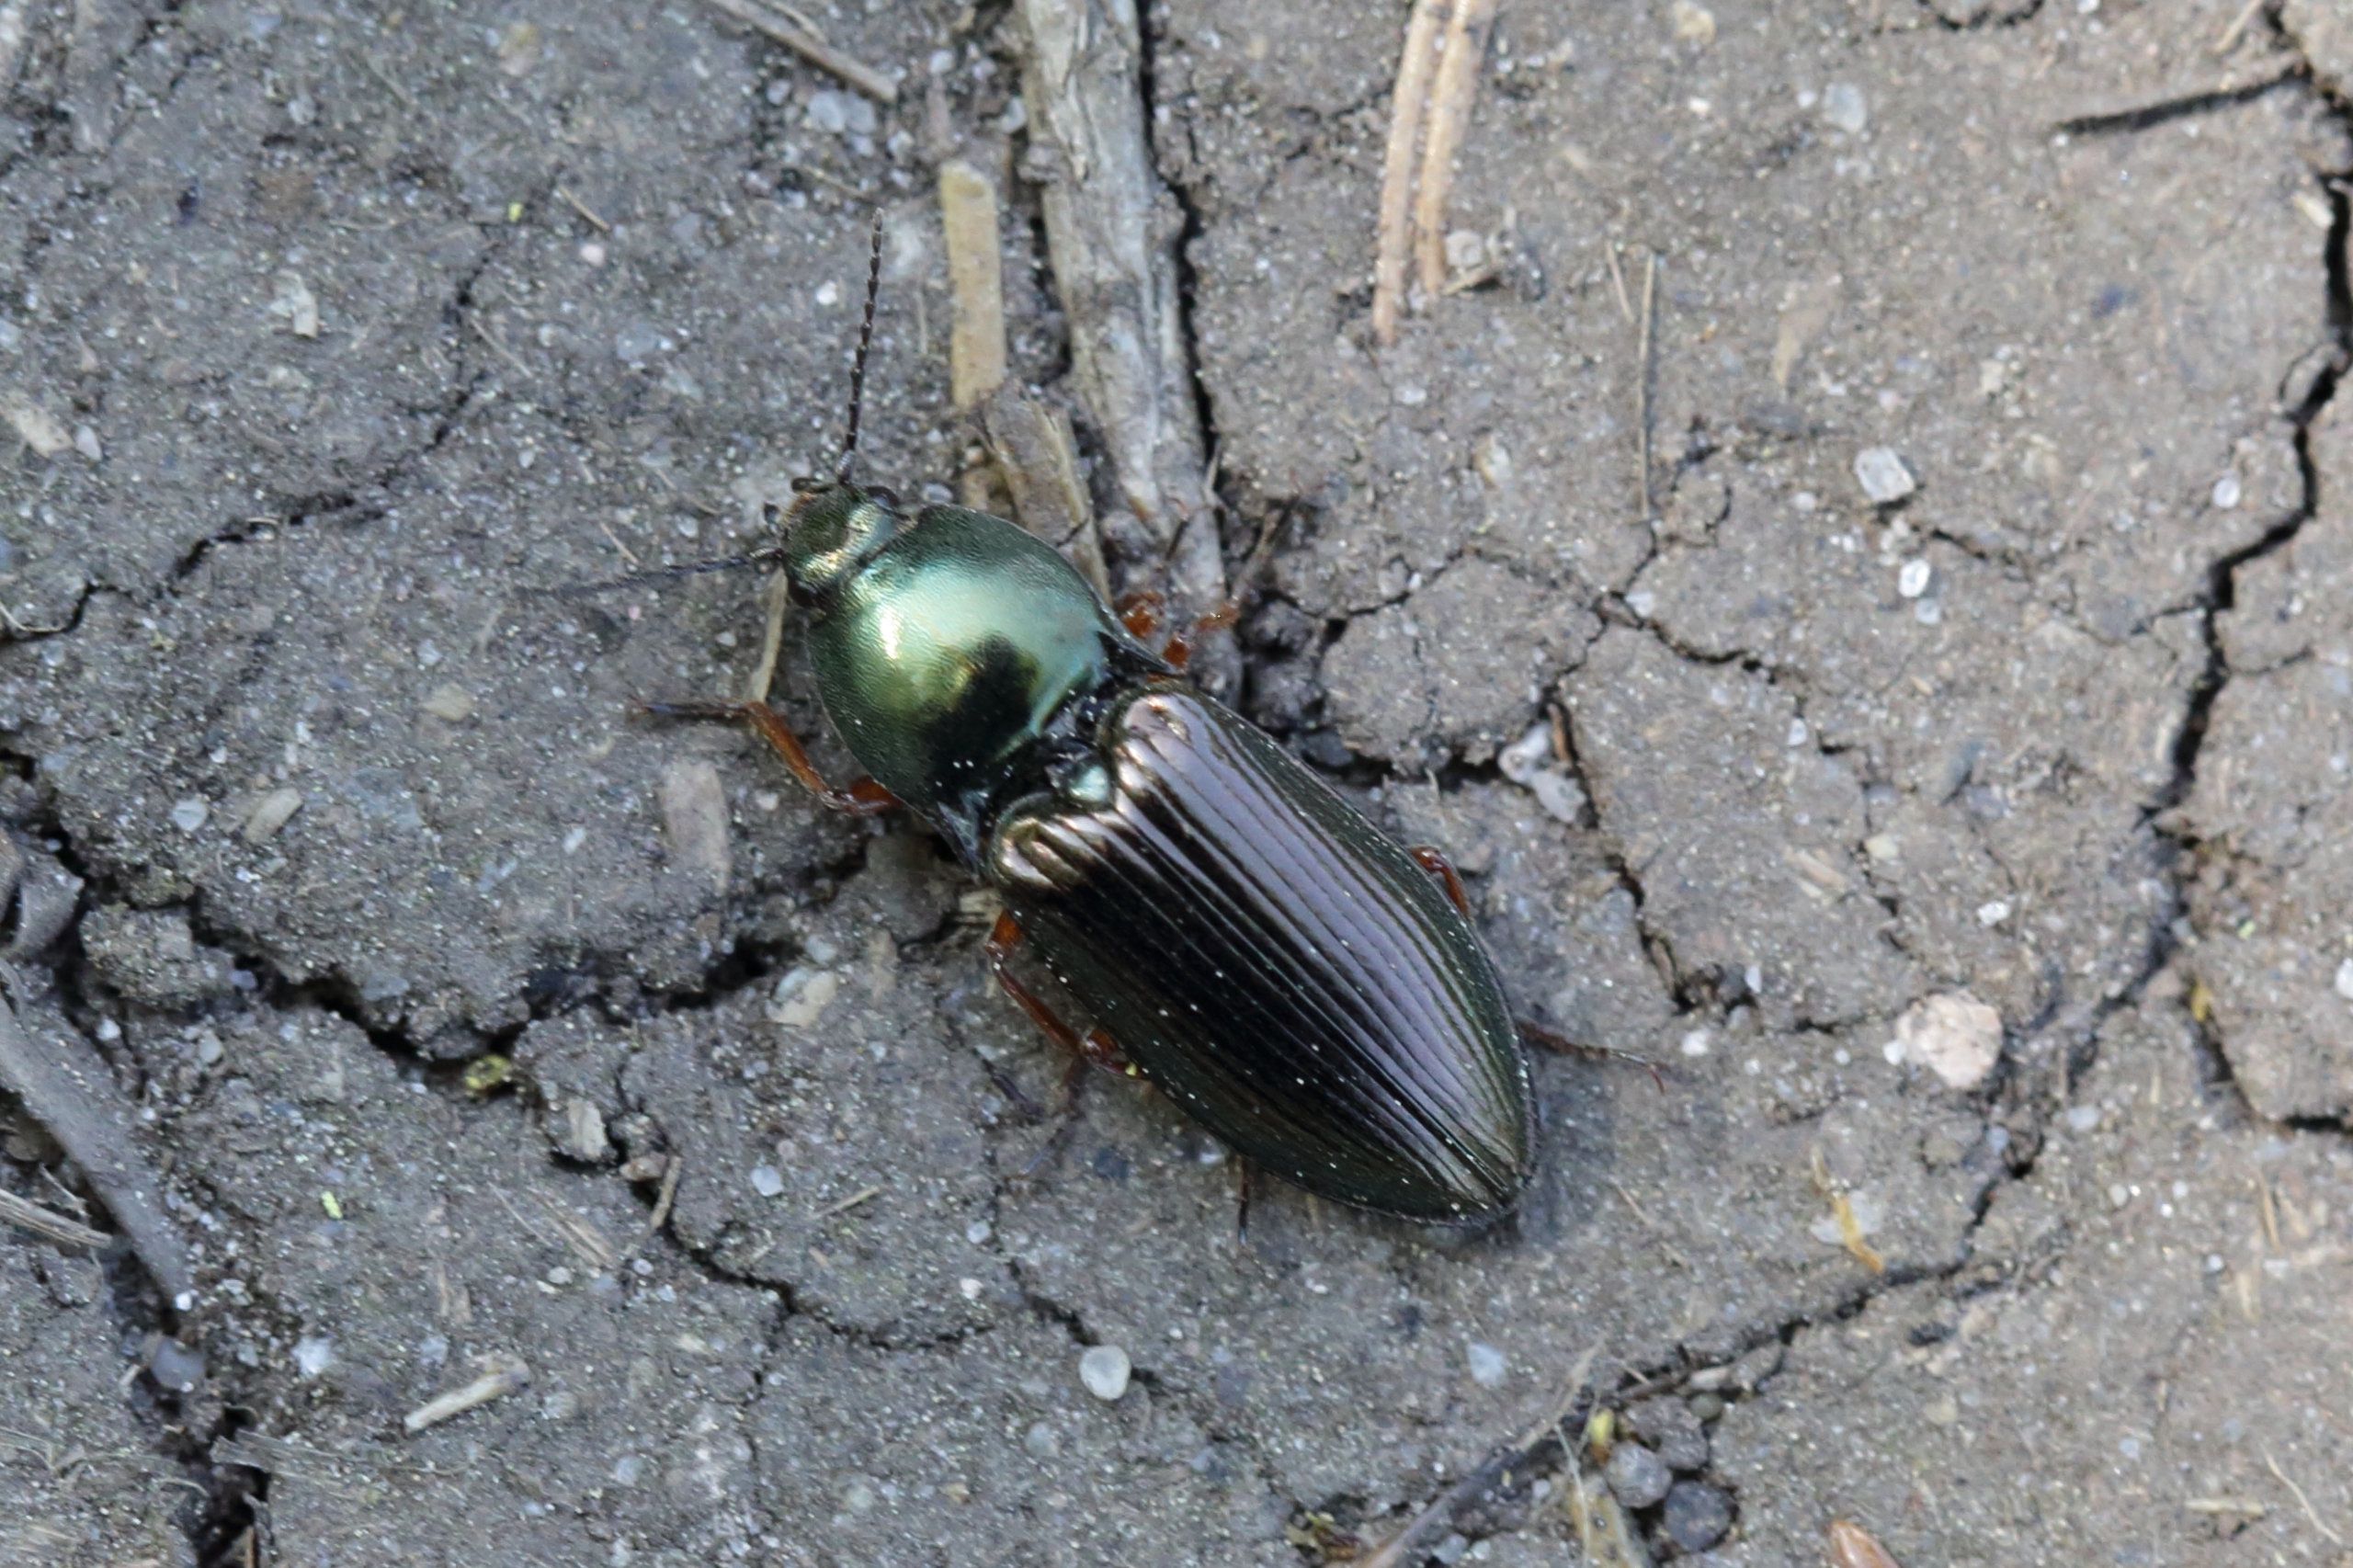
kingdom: Animalia
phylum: Arthropoda
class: Insecta
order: Coleoptera
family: Elateridae
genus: Selatosomus
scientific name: Selatosomus aeneus
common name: Kobbersmælder
